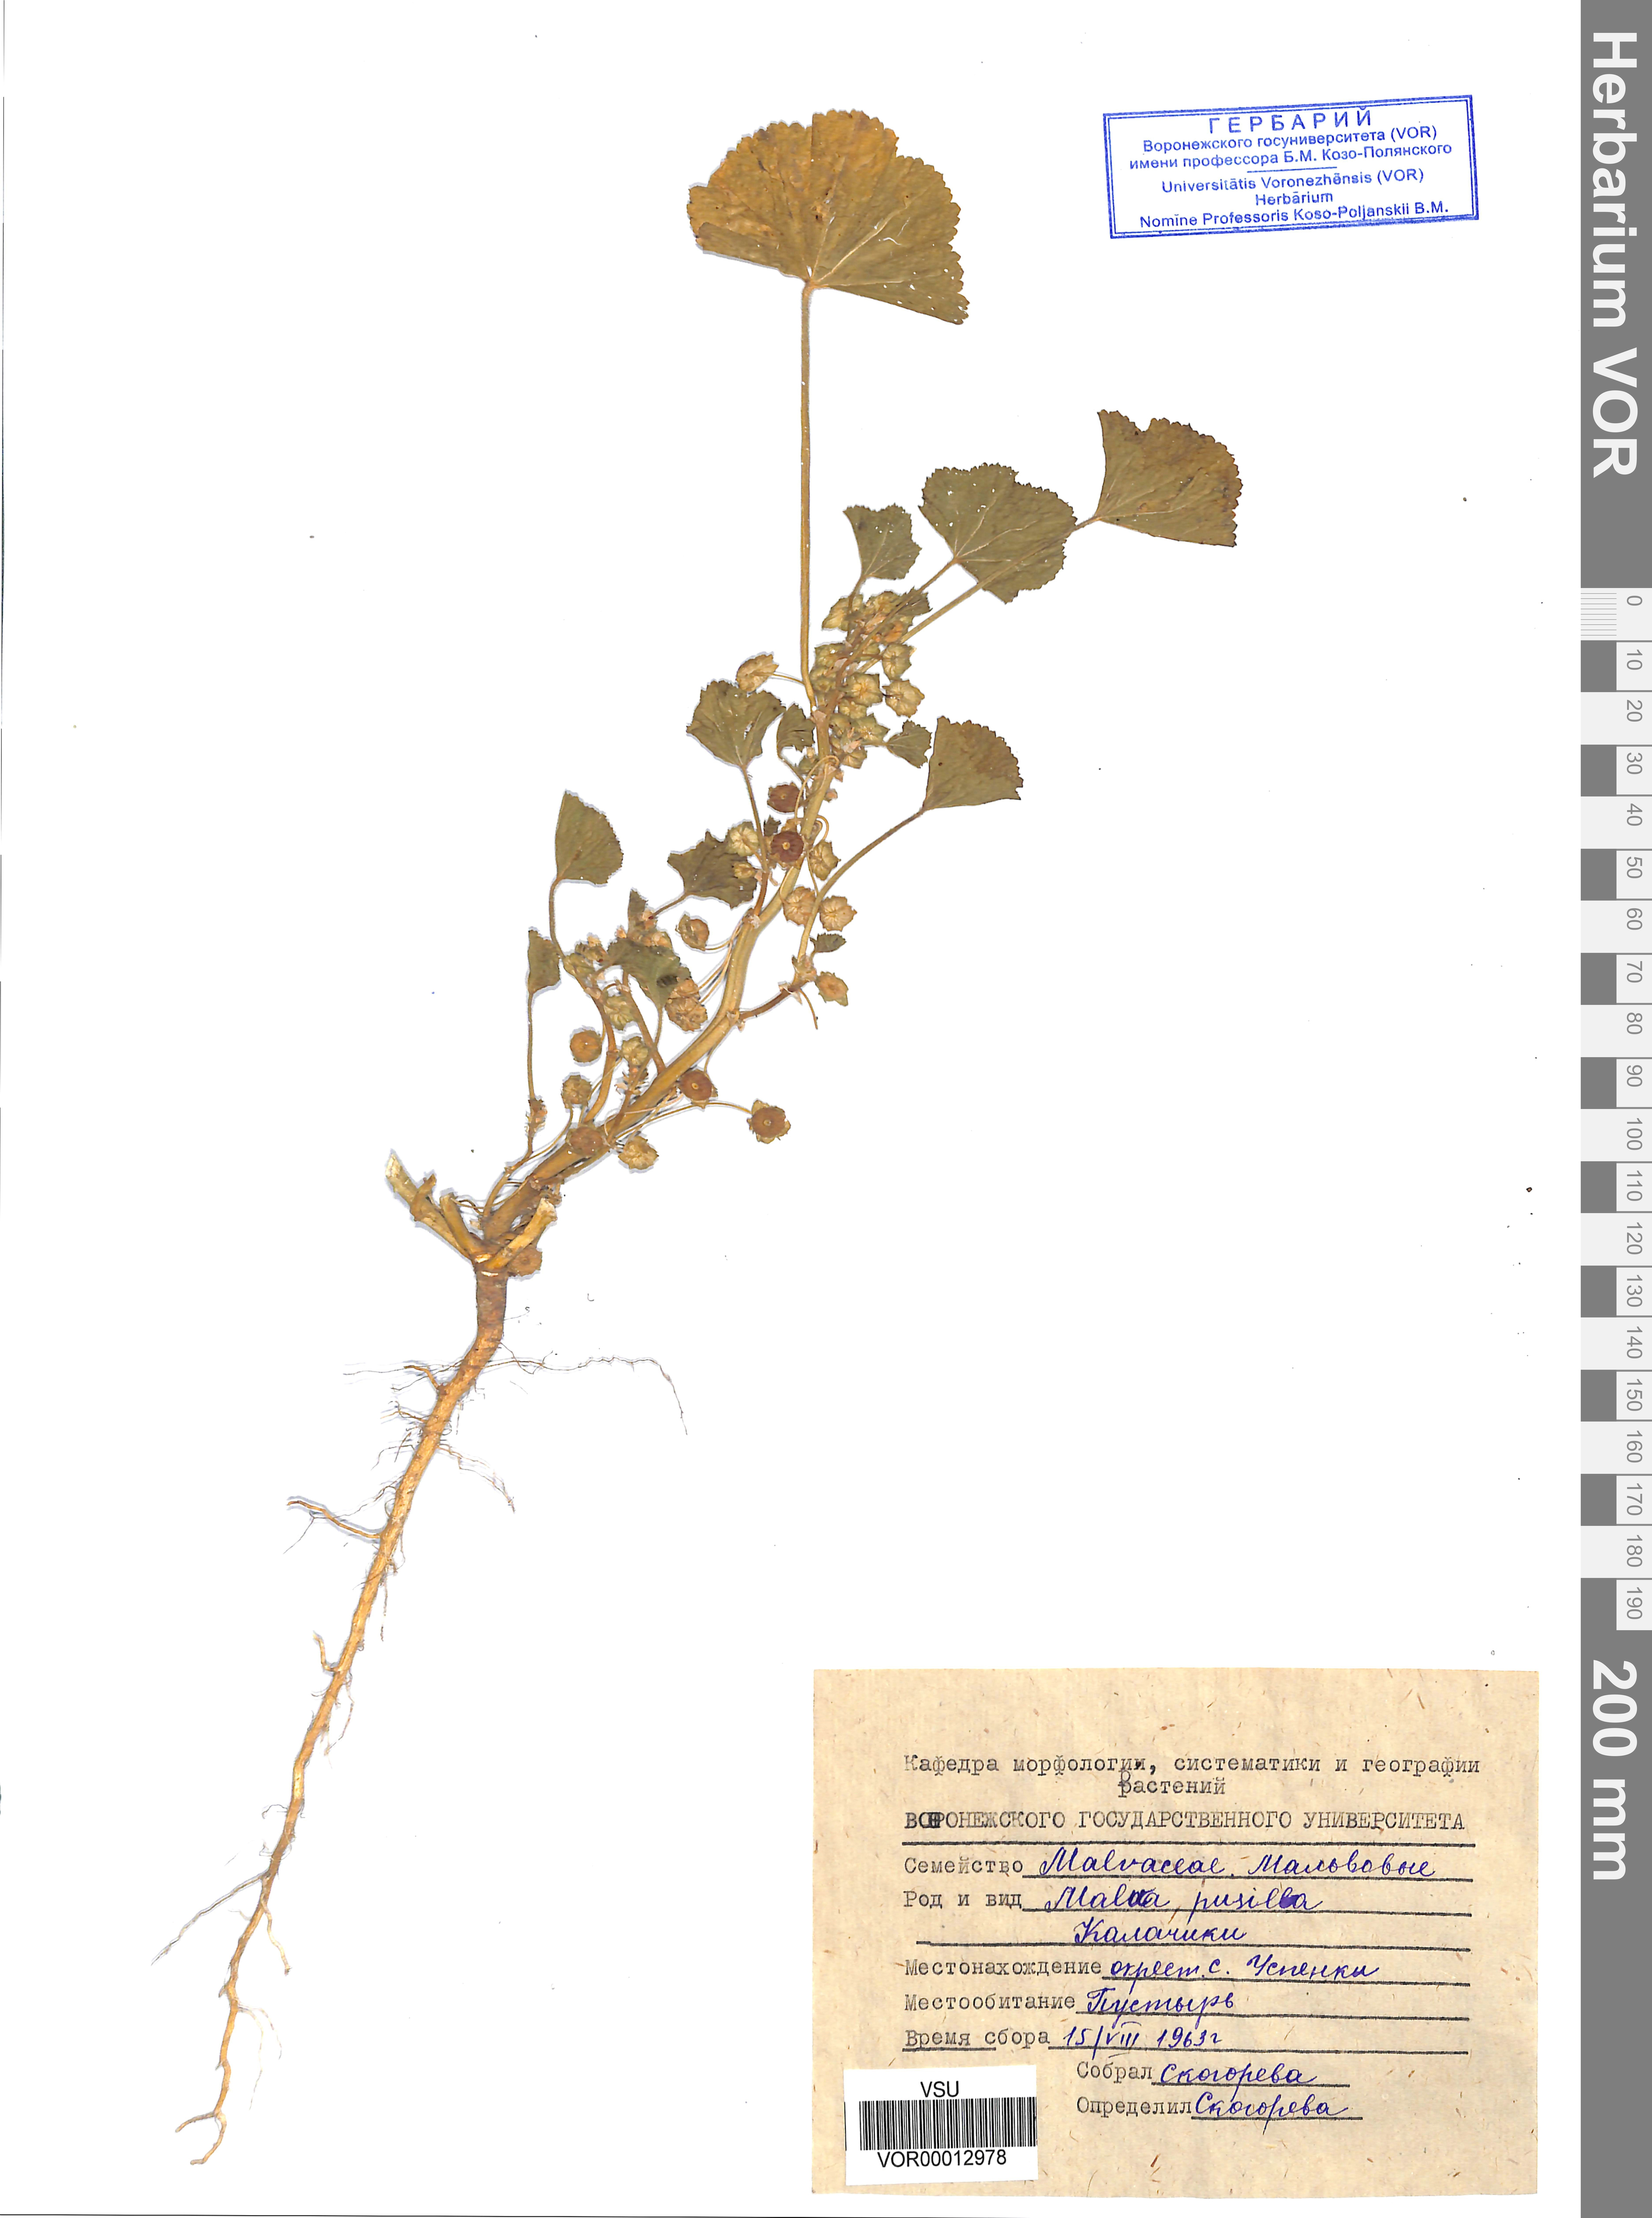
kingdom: Plantae
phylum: Tracheophyta
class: Magnoliopsida
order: Malvales
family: Malvaceae
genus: Malva
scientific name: Malva pusilla
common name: Small mallow
